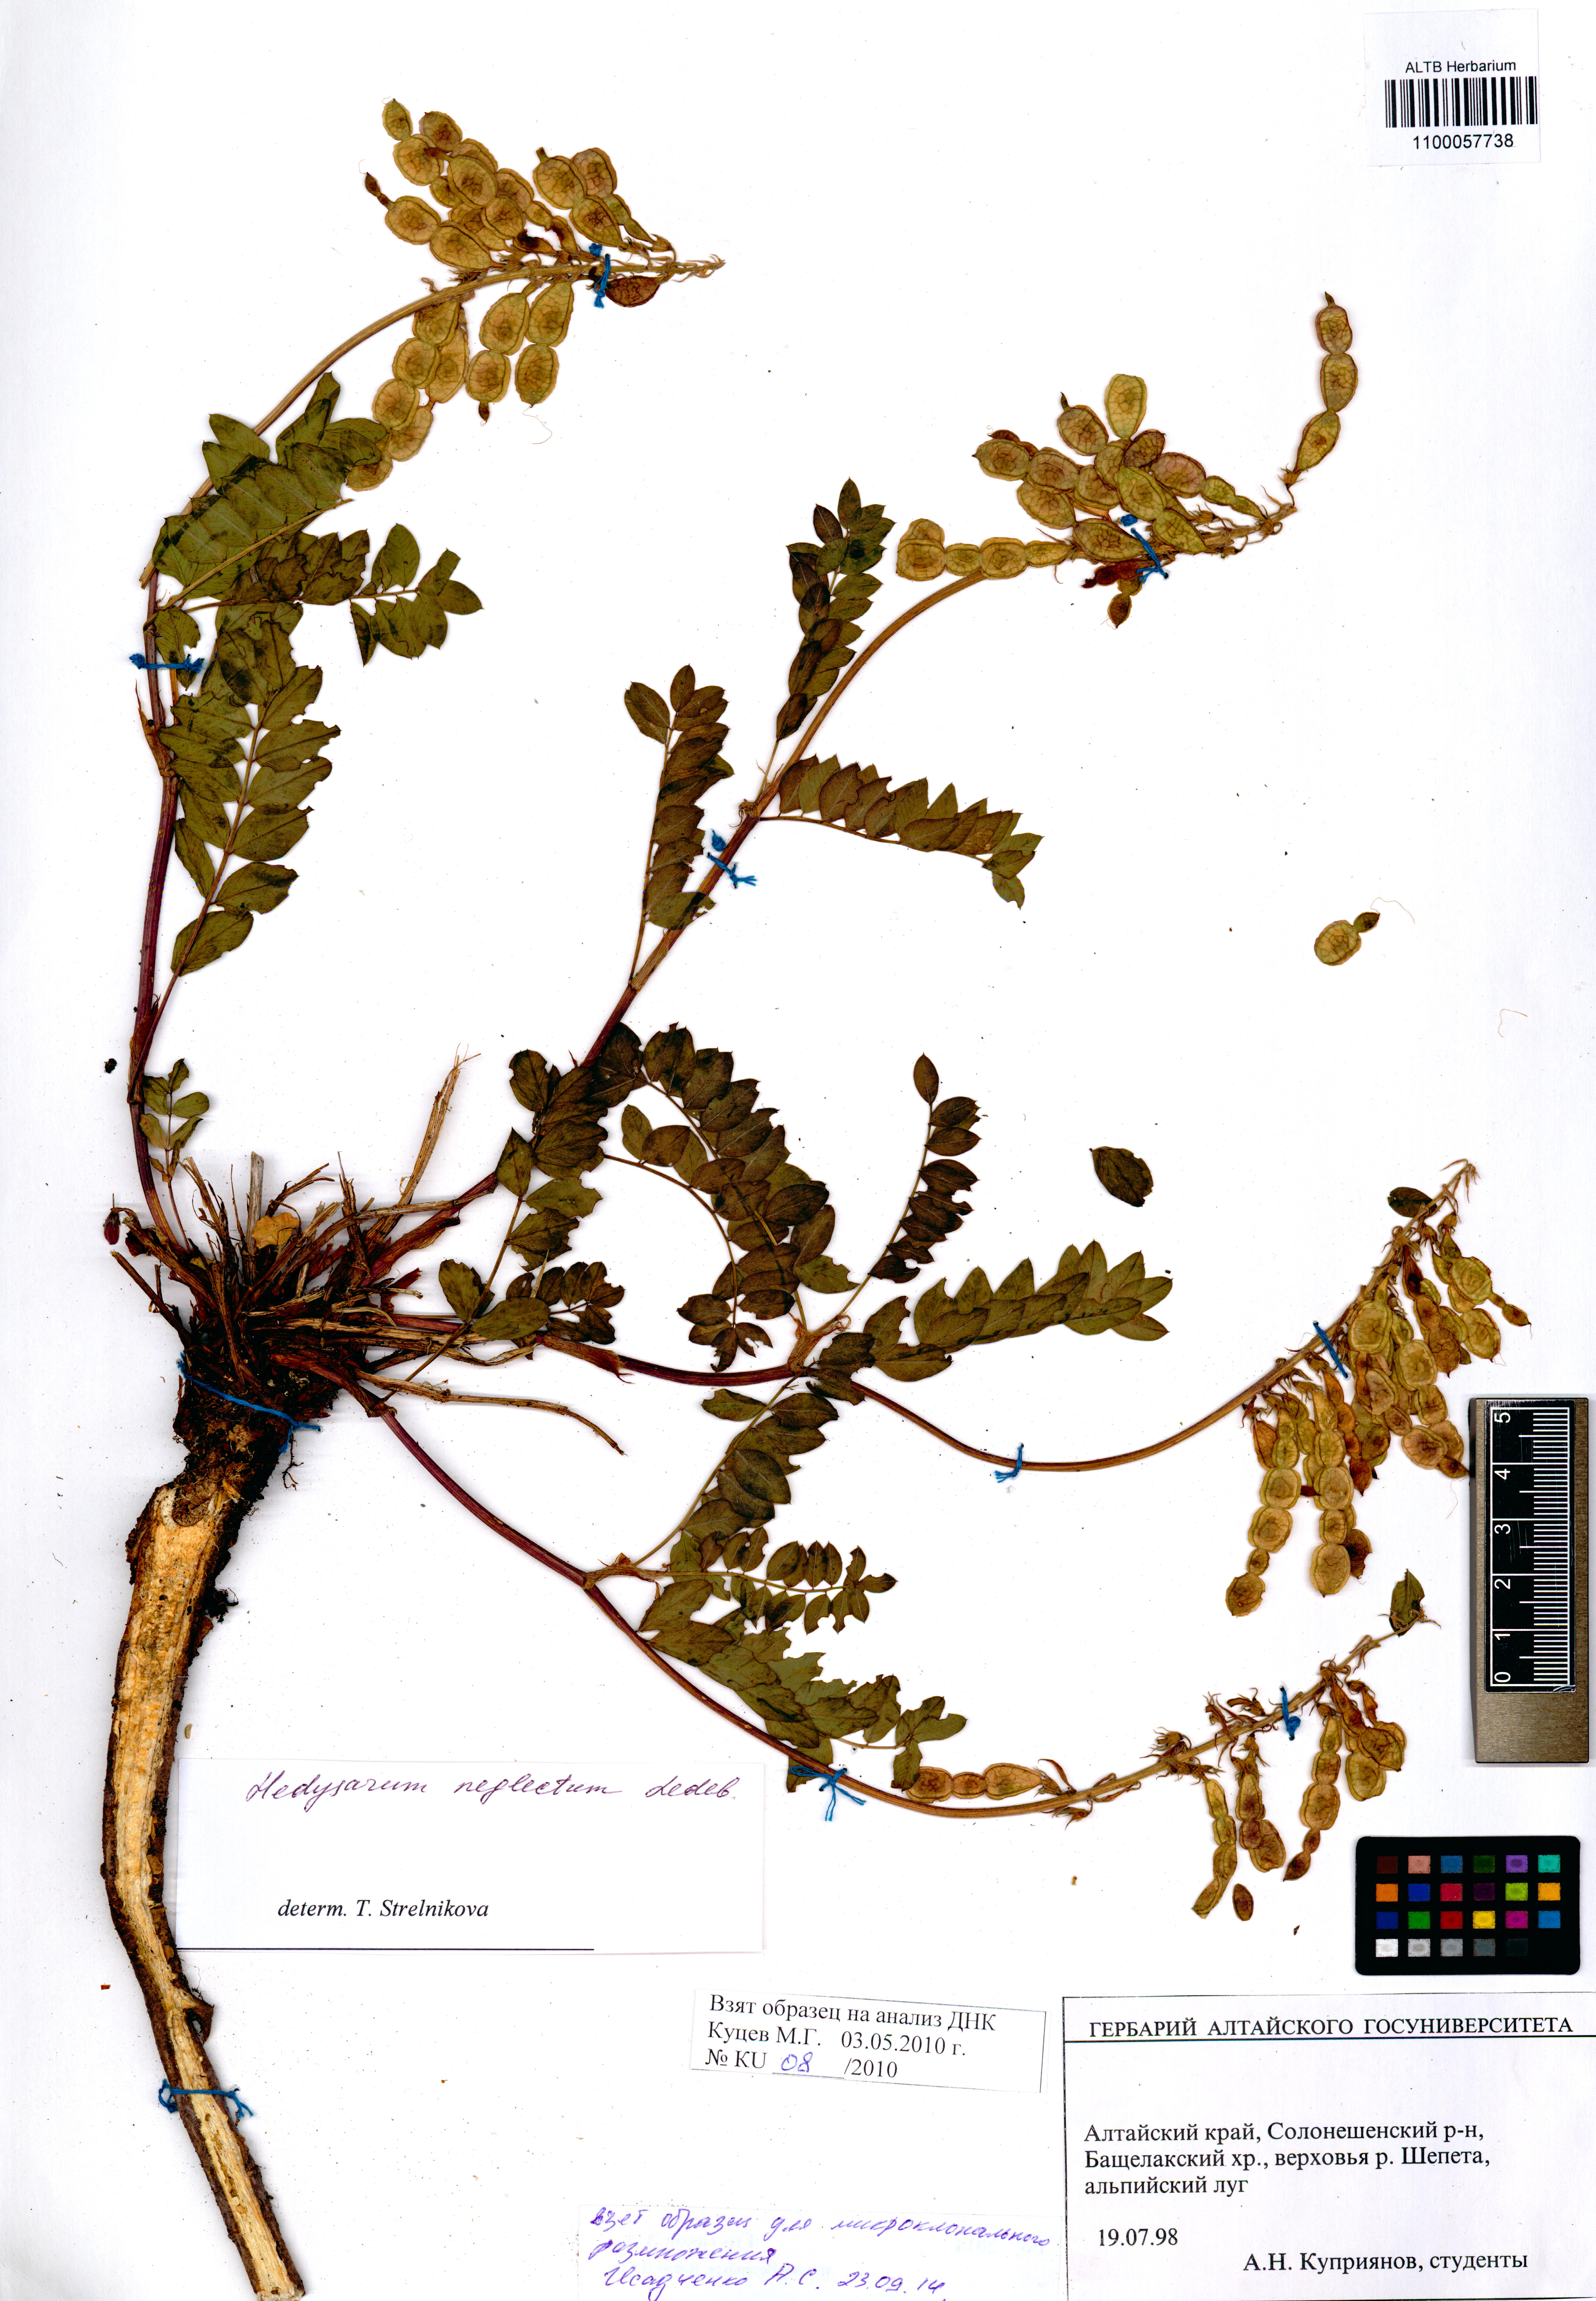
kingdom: Plantae
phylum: Tracheophyta
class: Magnoliopsida
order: Fabales
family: Fabaceae
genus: Hedysarum
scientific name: Hedysarum neglectum
